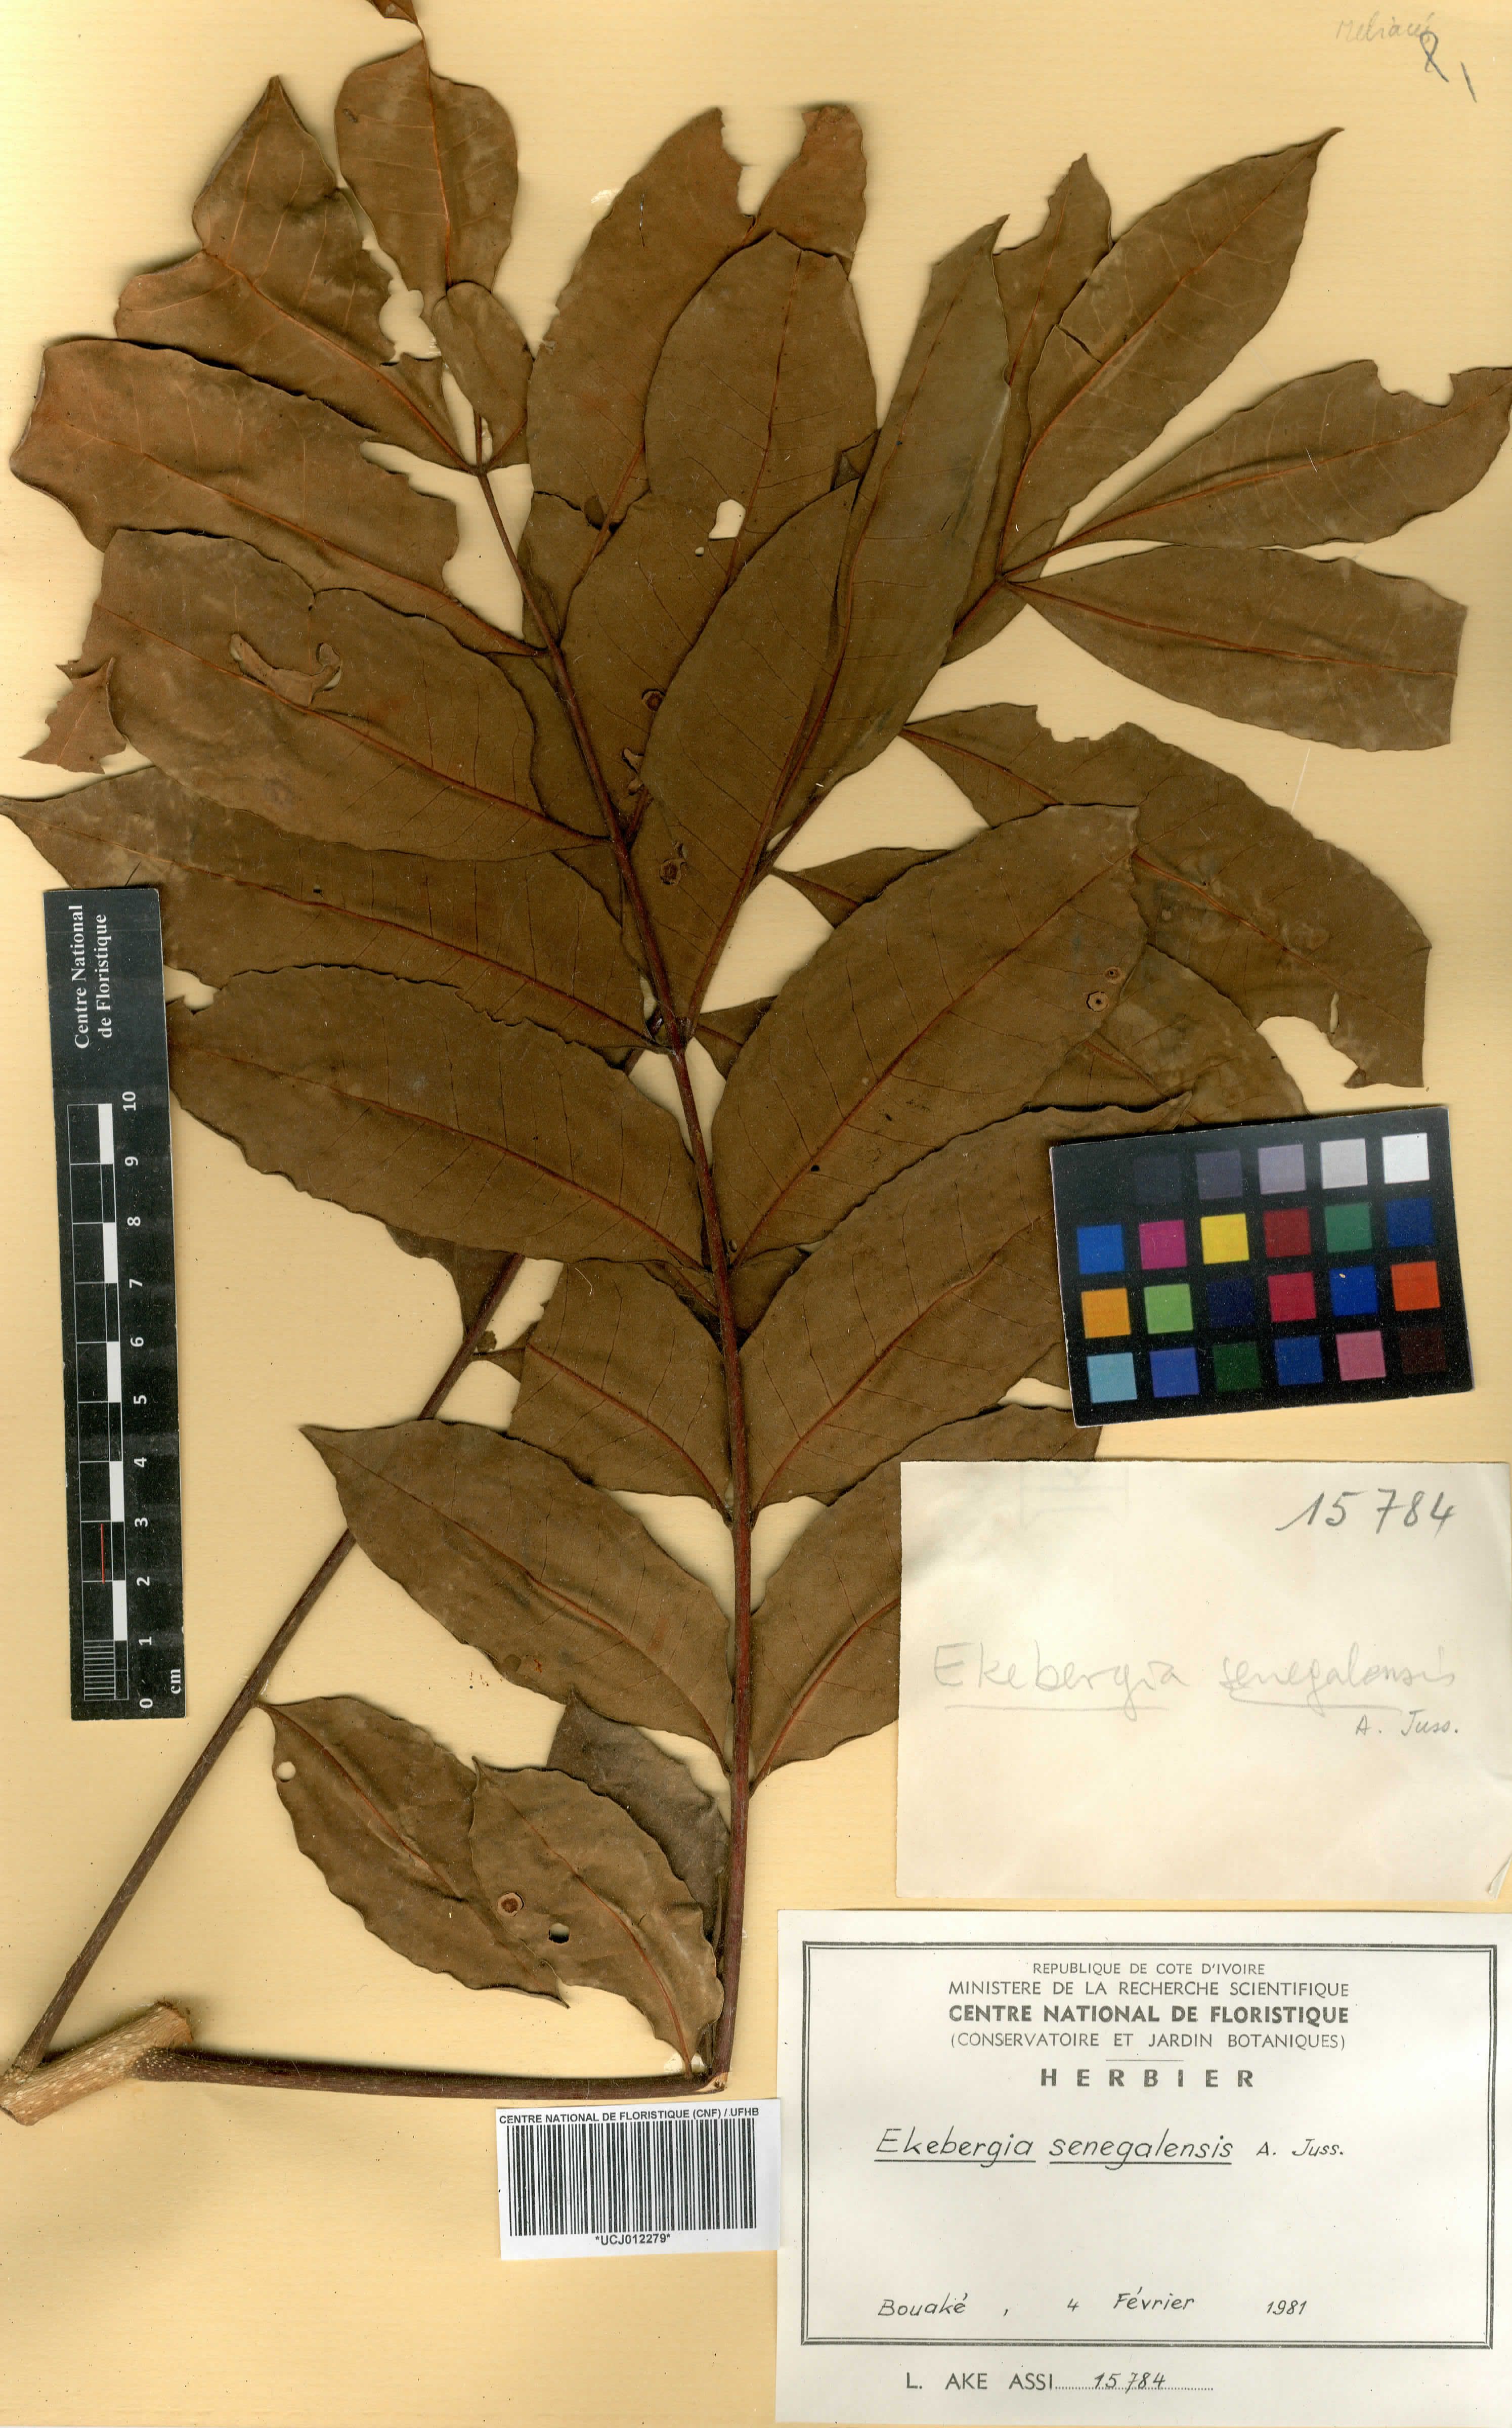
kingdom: Plantae
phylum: Tracheophyta
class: Magnoliopsida
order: Sapindales
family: Meliaceae
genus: Ekebergia
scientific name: Ekebergia capensis
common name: Cape-ash
